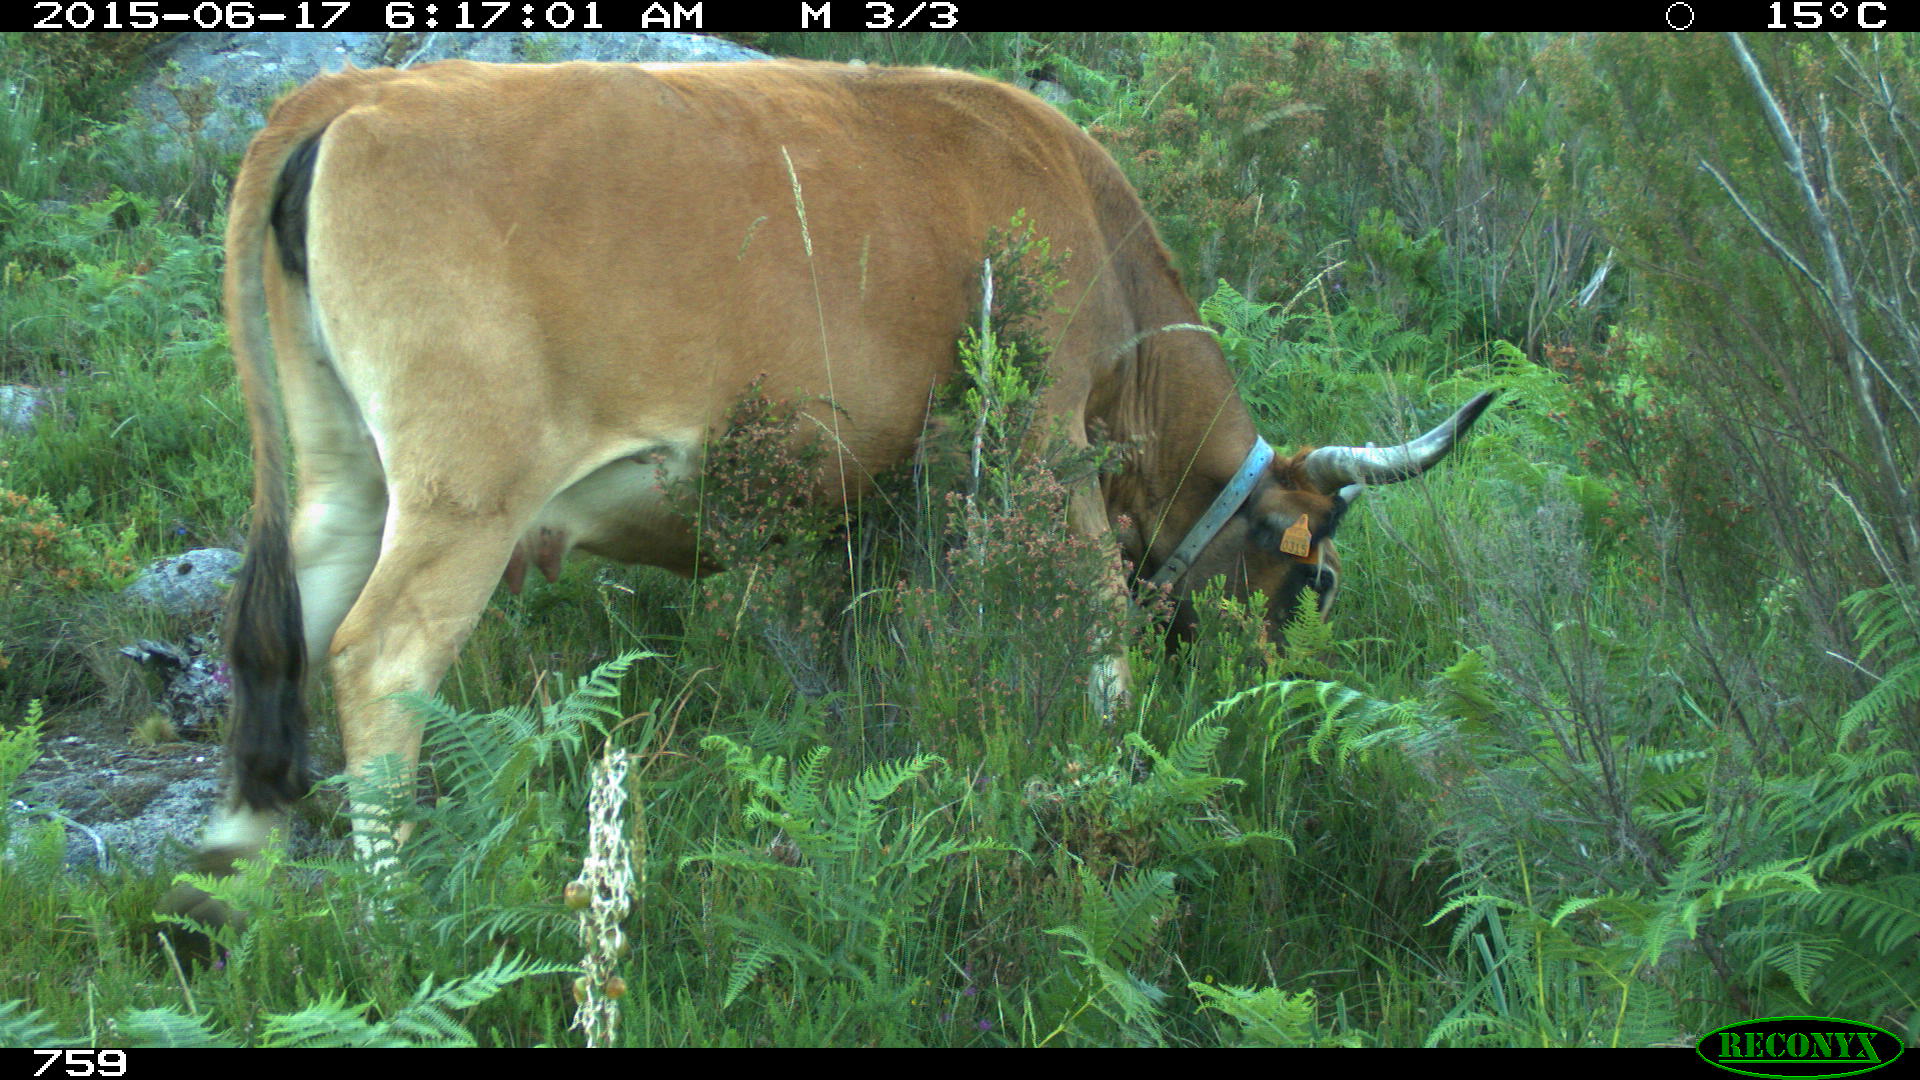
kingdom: Animalia
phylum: Chordata
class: Mammalia
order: Artiodactyla
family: Bovidae
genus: Bos
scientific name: Bos taurus
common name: Domesticated cattle
